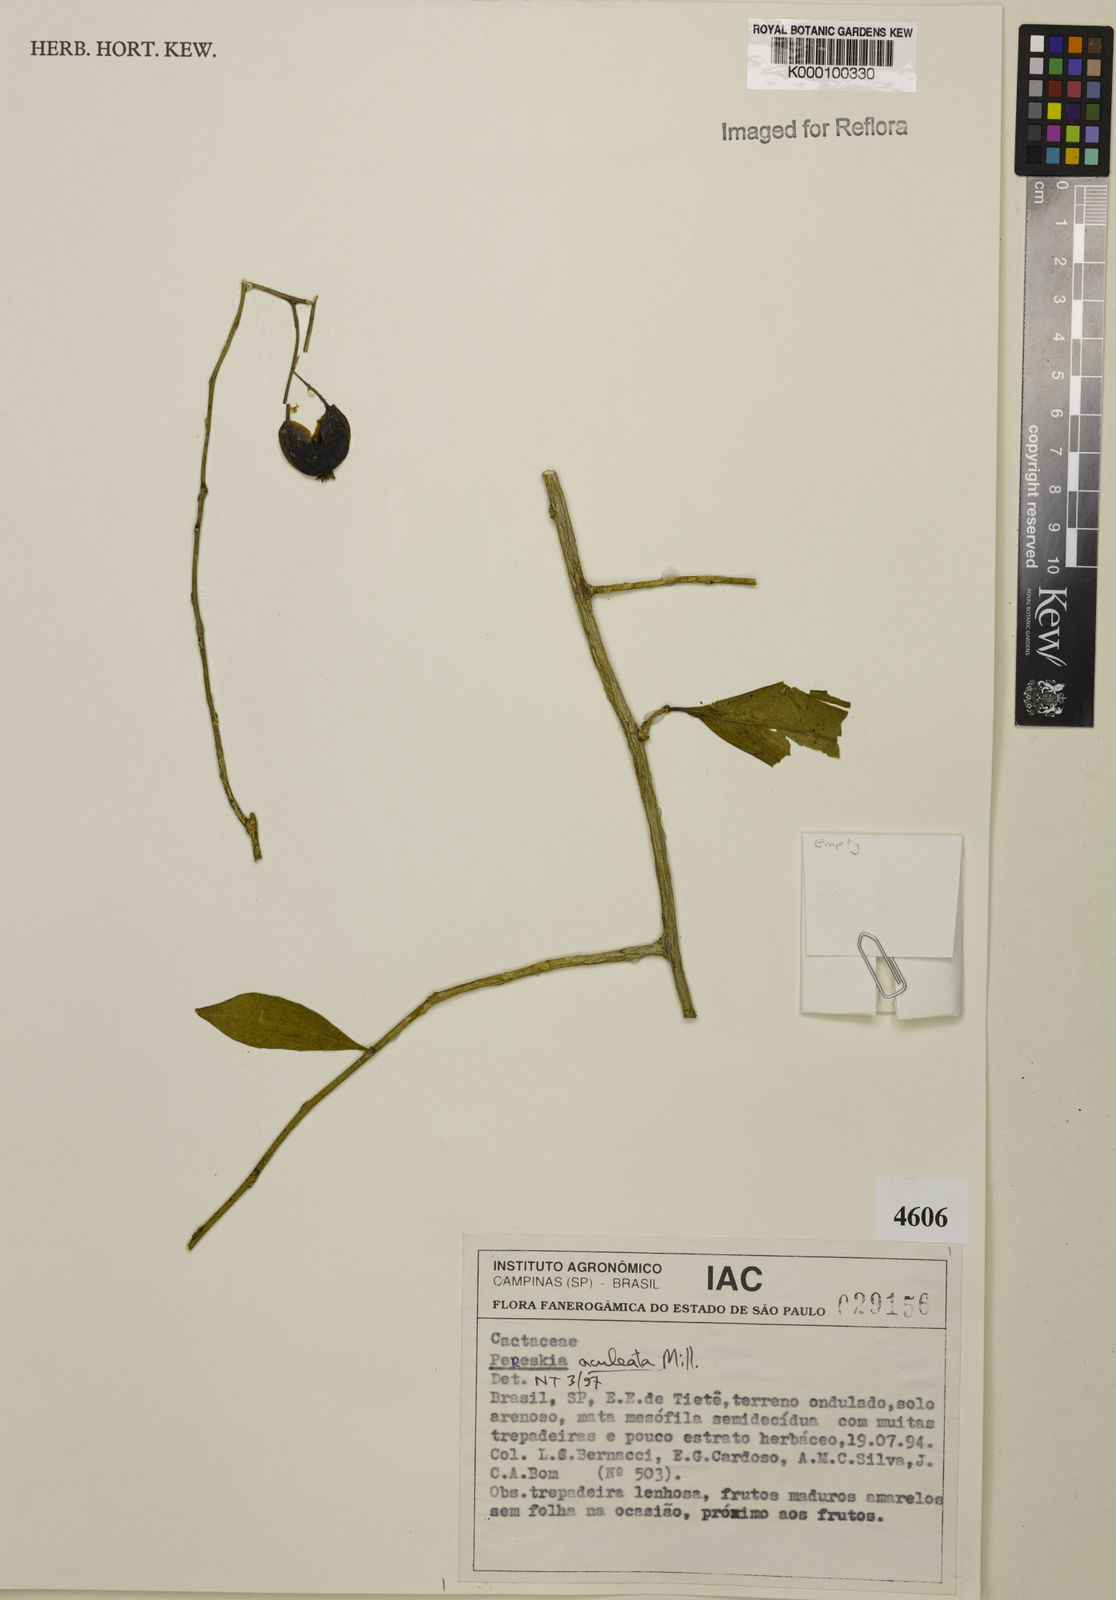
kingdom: Plantae
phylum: Tracheophyta
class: Magnoliopsida
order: Caryophyllales
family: Cactaceae
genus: Pereskia
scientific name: Pereskia aculeata
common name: Barbados gooseberry
